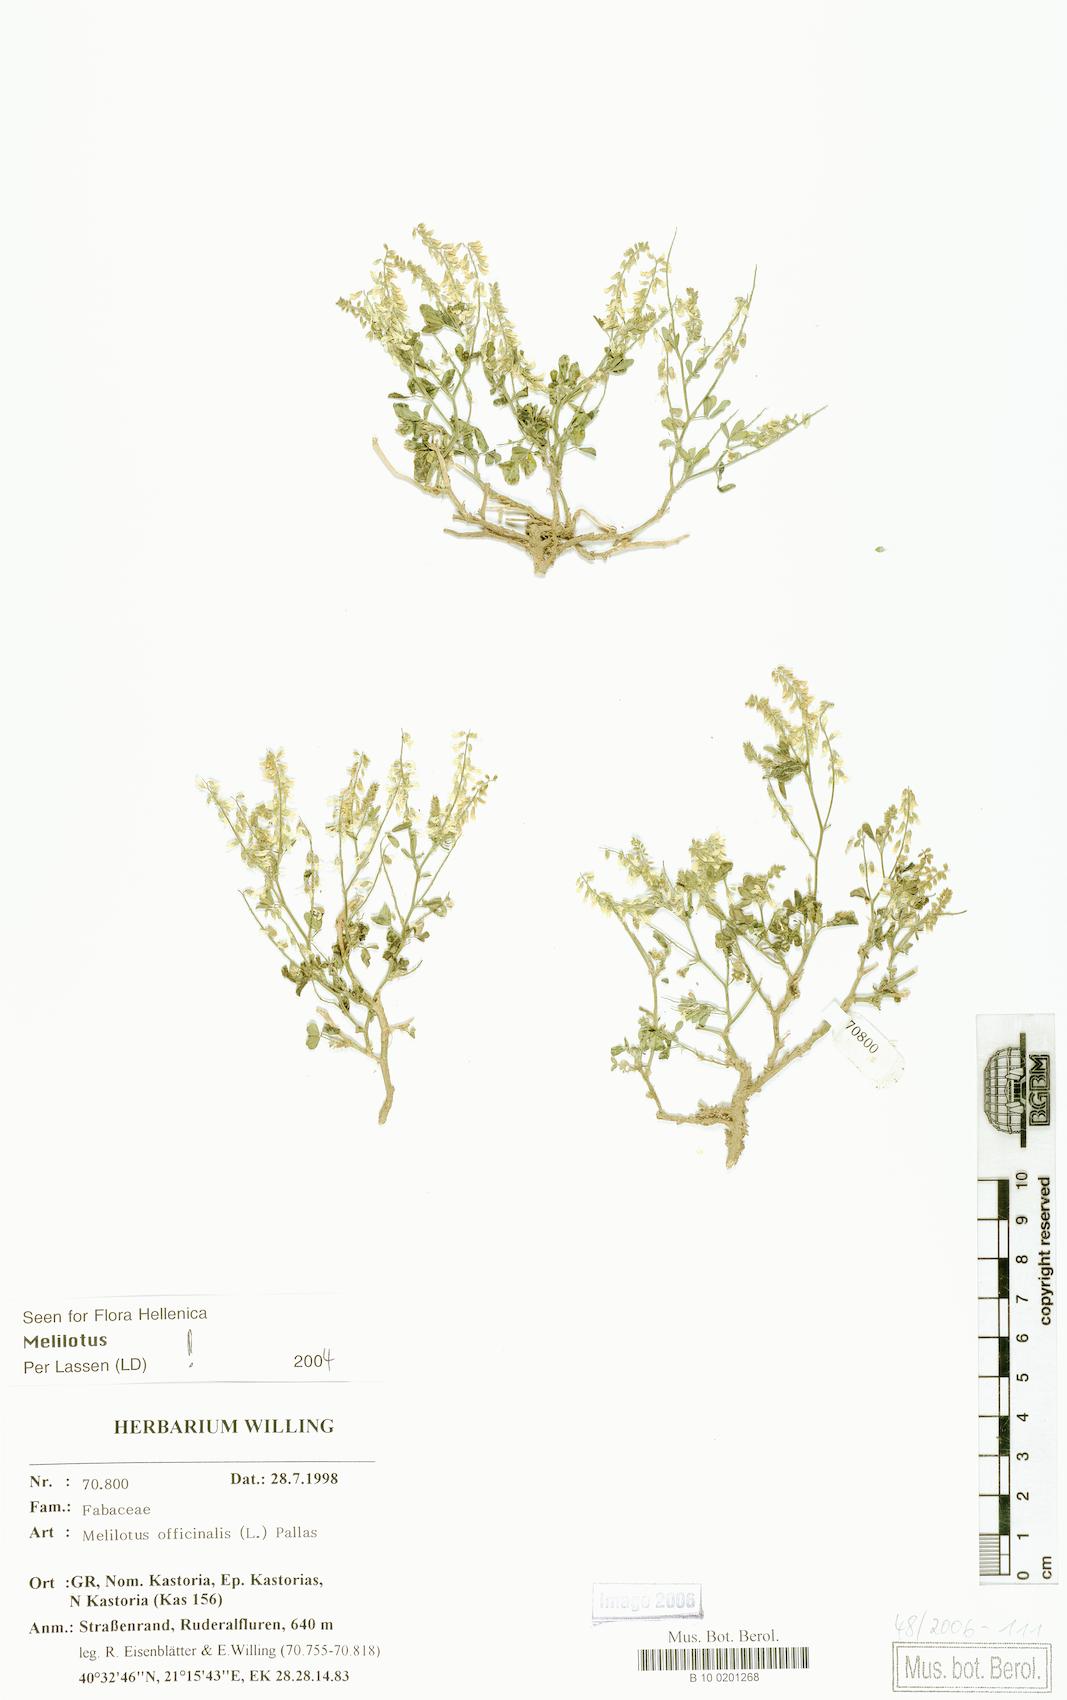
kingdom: Plantae
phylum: Tracheophyta
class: Magnoliopsida
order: Fabales
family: Fabaceae
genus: Melilotus
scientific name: Melilotus officinalis
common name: Sweetclover
